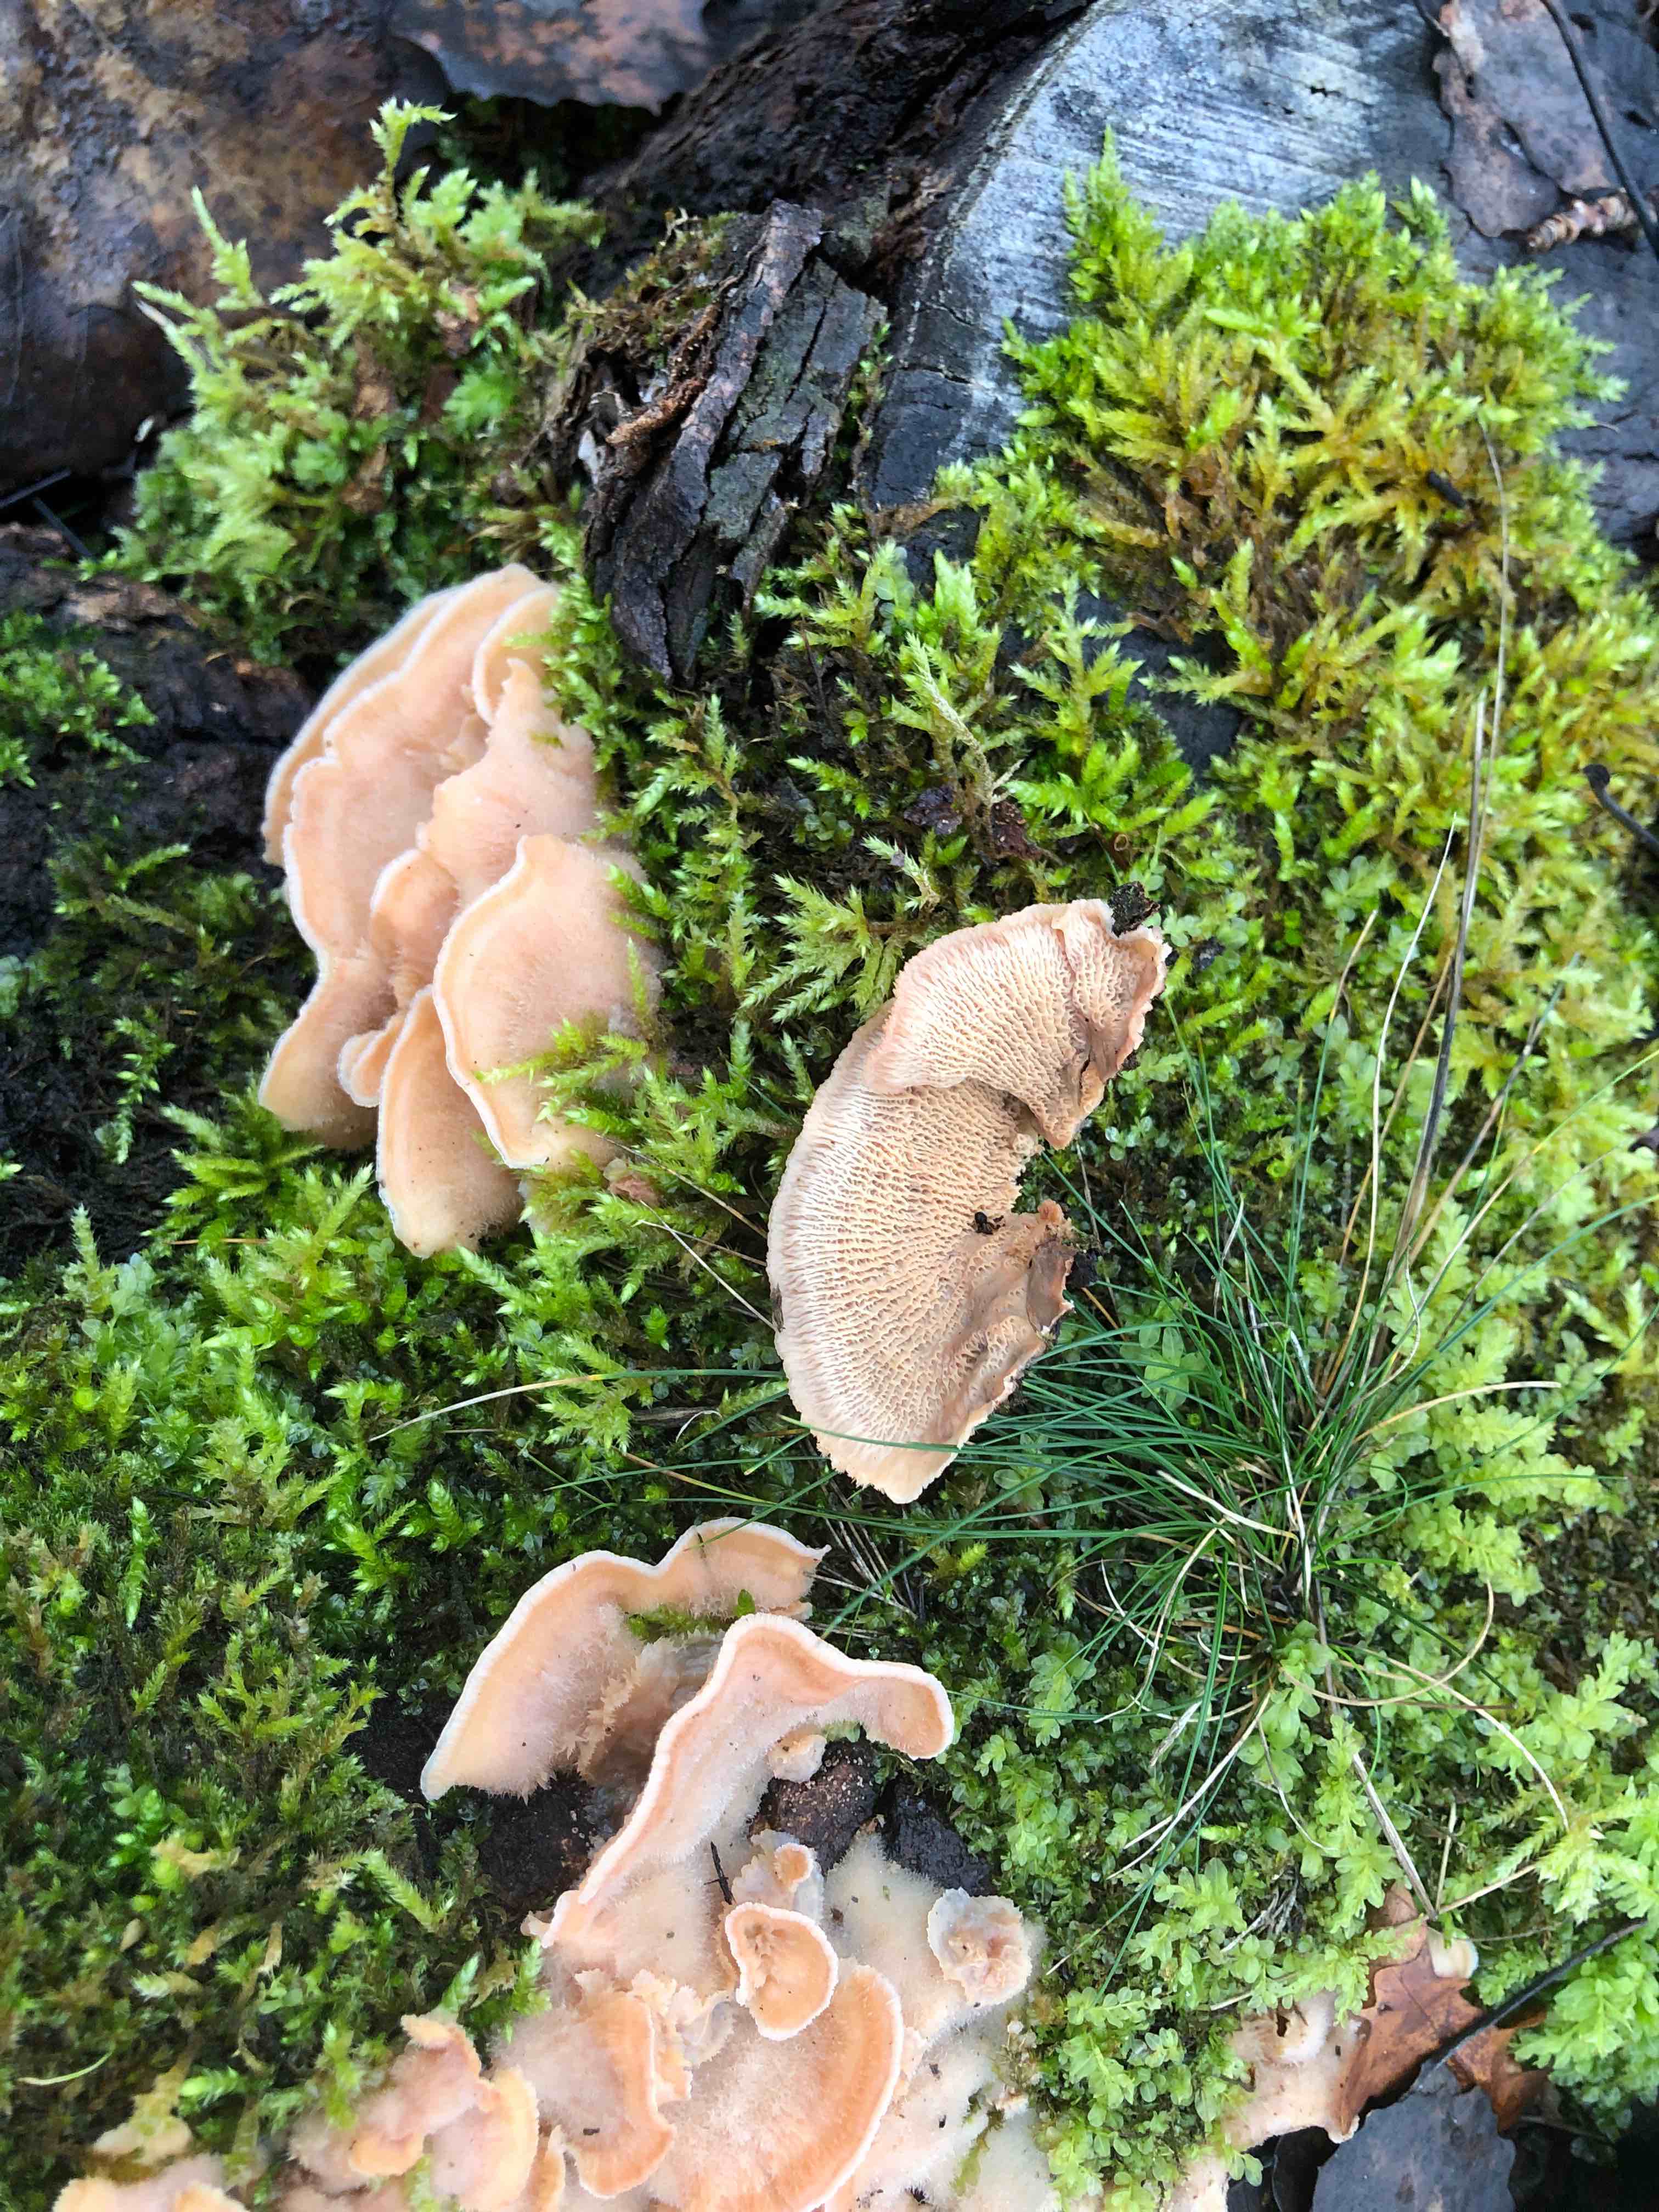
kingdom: Fungi
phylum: Basidiomycota
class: Agaricomycetes
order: Polyporales
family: Meruliaceae
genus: Phlebia
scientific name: Phlebia tremellosa
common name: bævrende åresvamp
